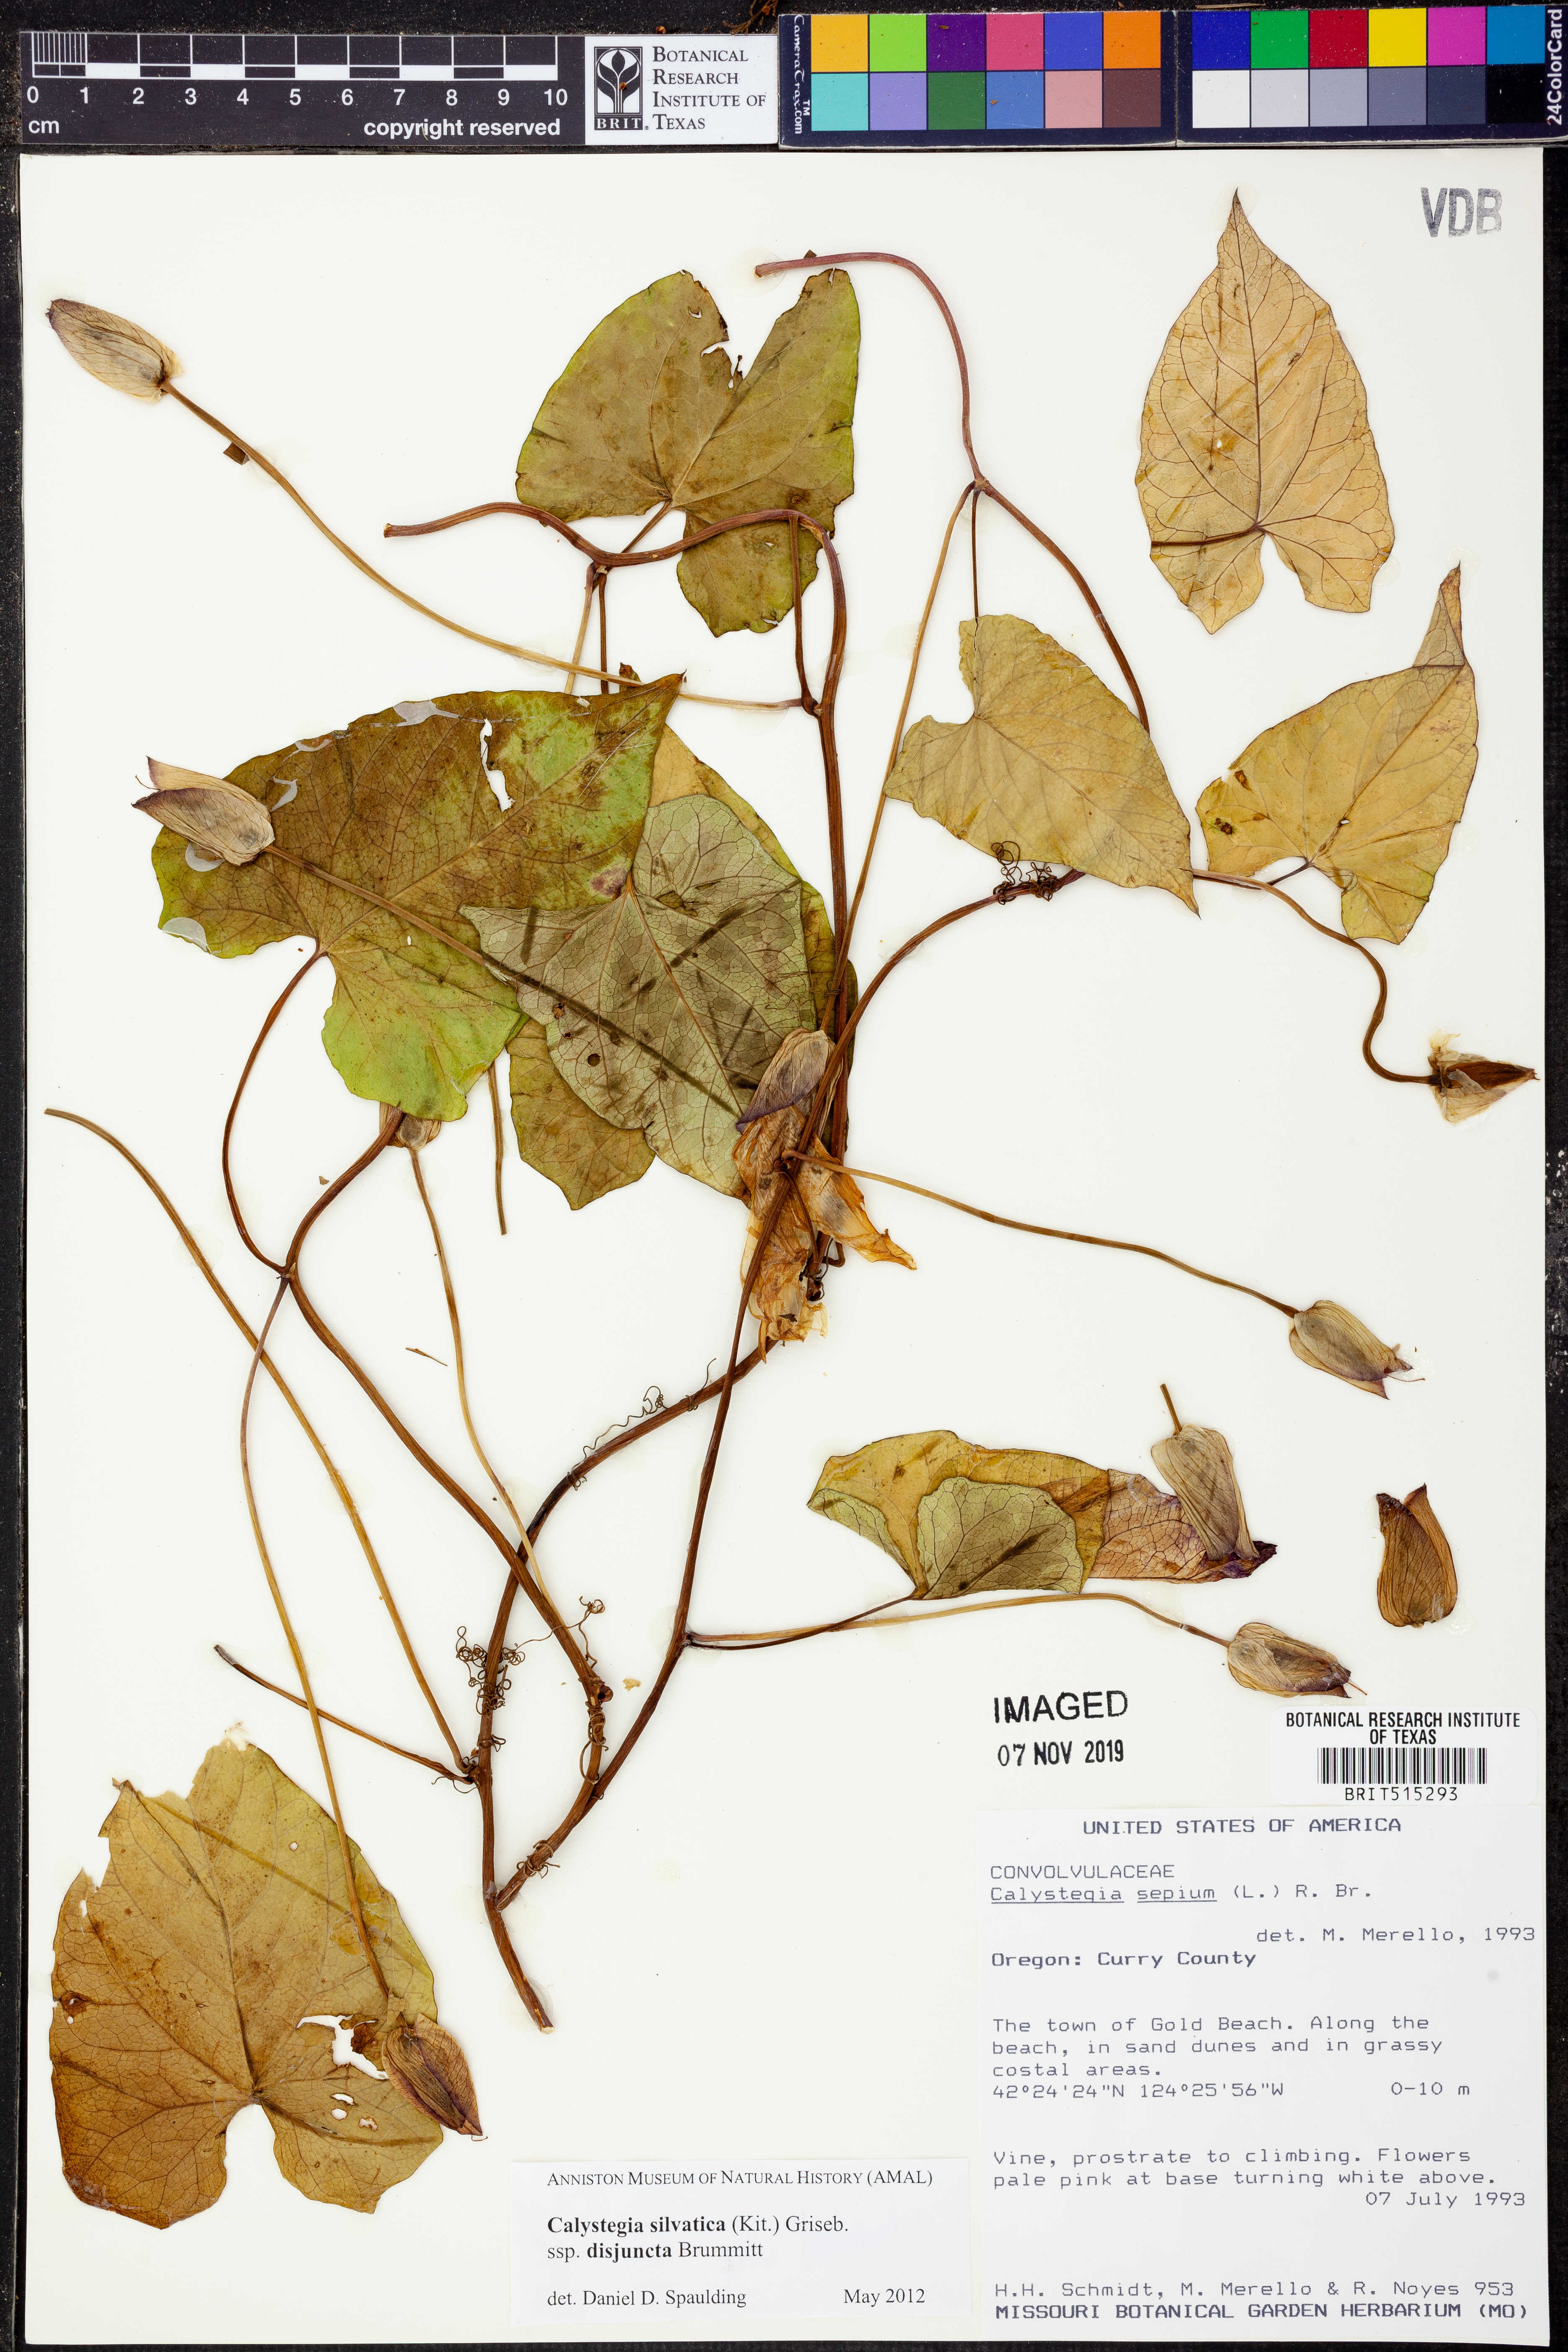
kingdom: Plantae
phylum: Tracheophyta
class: Magnoliopsida
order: Solanales
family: Convolvulaceae
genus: Calystegia
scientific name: Calystegia silvatica
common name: Large bindweed
